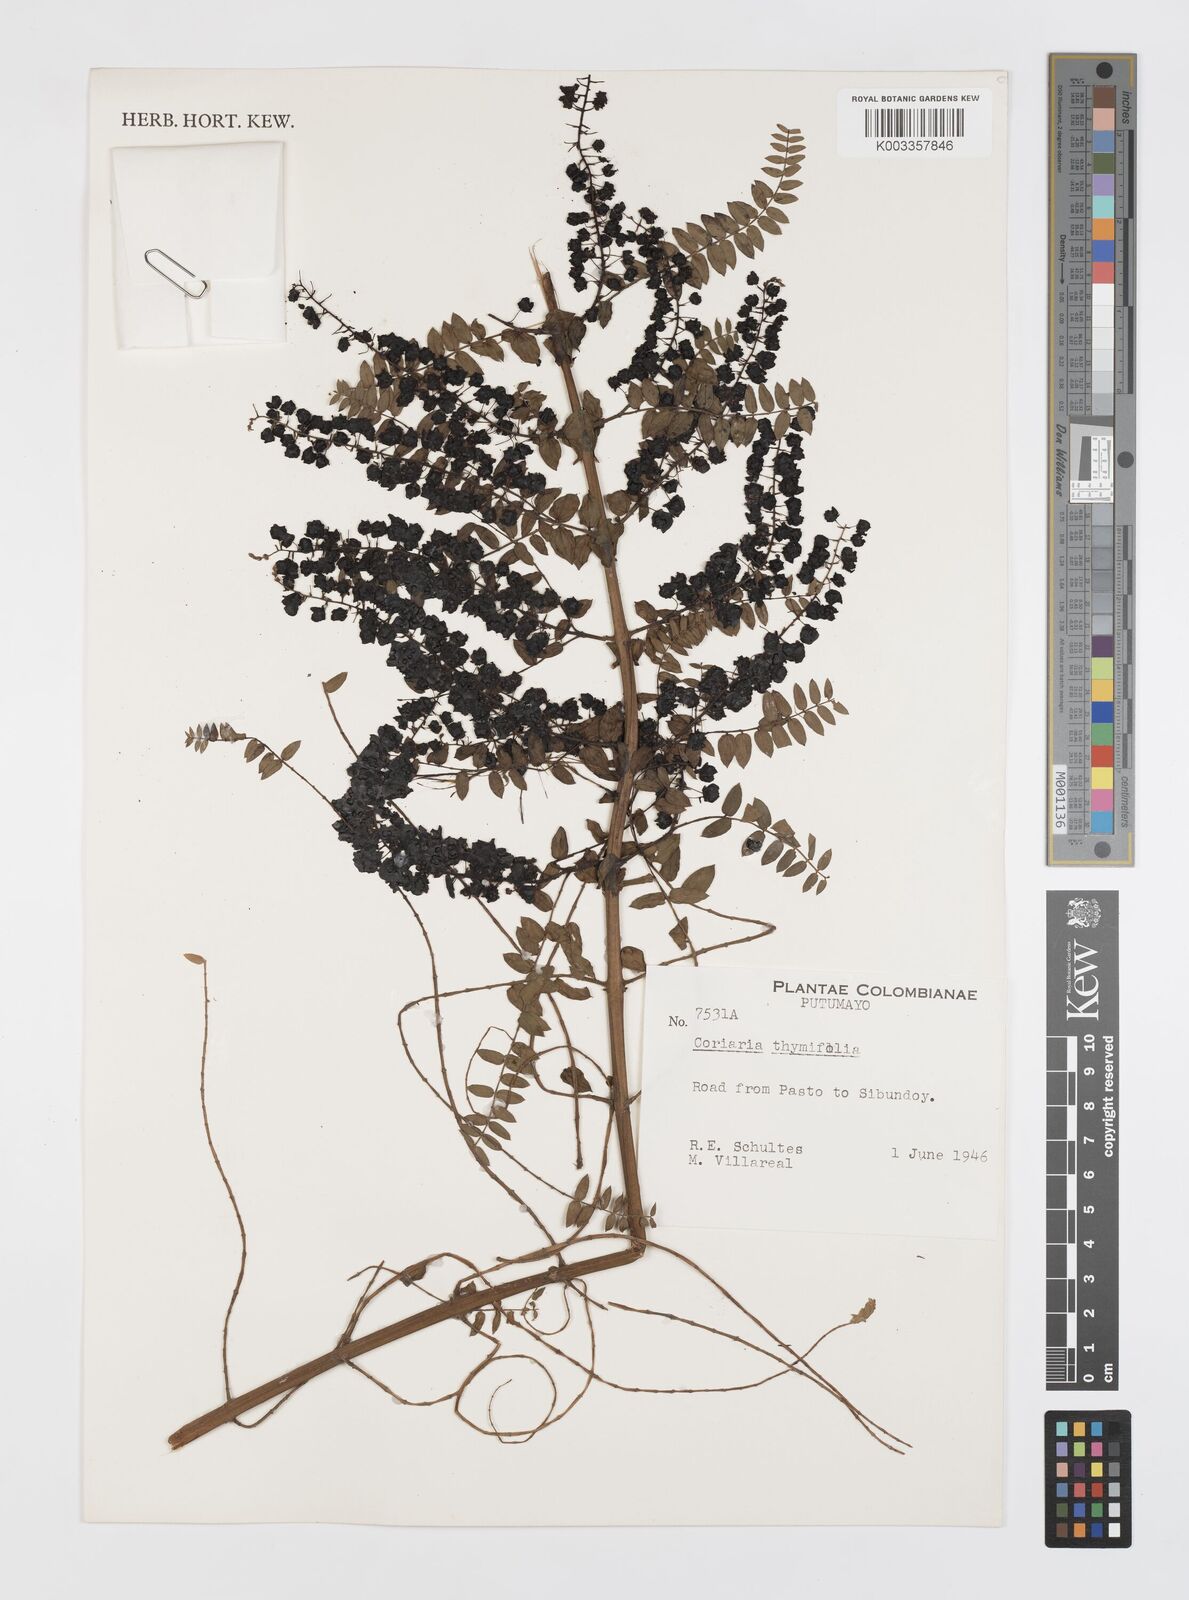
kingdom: Plantae
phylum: Tracheophyta
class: Magnoliopsida
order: Cucurbitales
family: Coriariaceae
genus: Coriaria
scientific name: Coriaria microphylla
